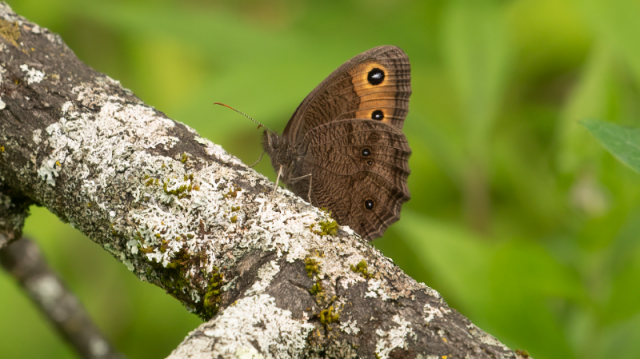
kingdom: Animalia
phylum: Arthropoda
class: Insecta
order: Lepidoptera
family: Nymphalidae
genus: Cercyonis
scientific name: Cercyonis pegala
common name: Common Wood-Nymph
